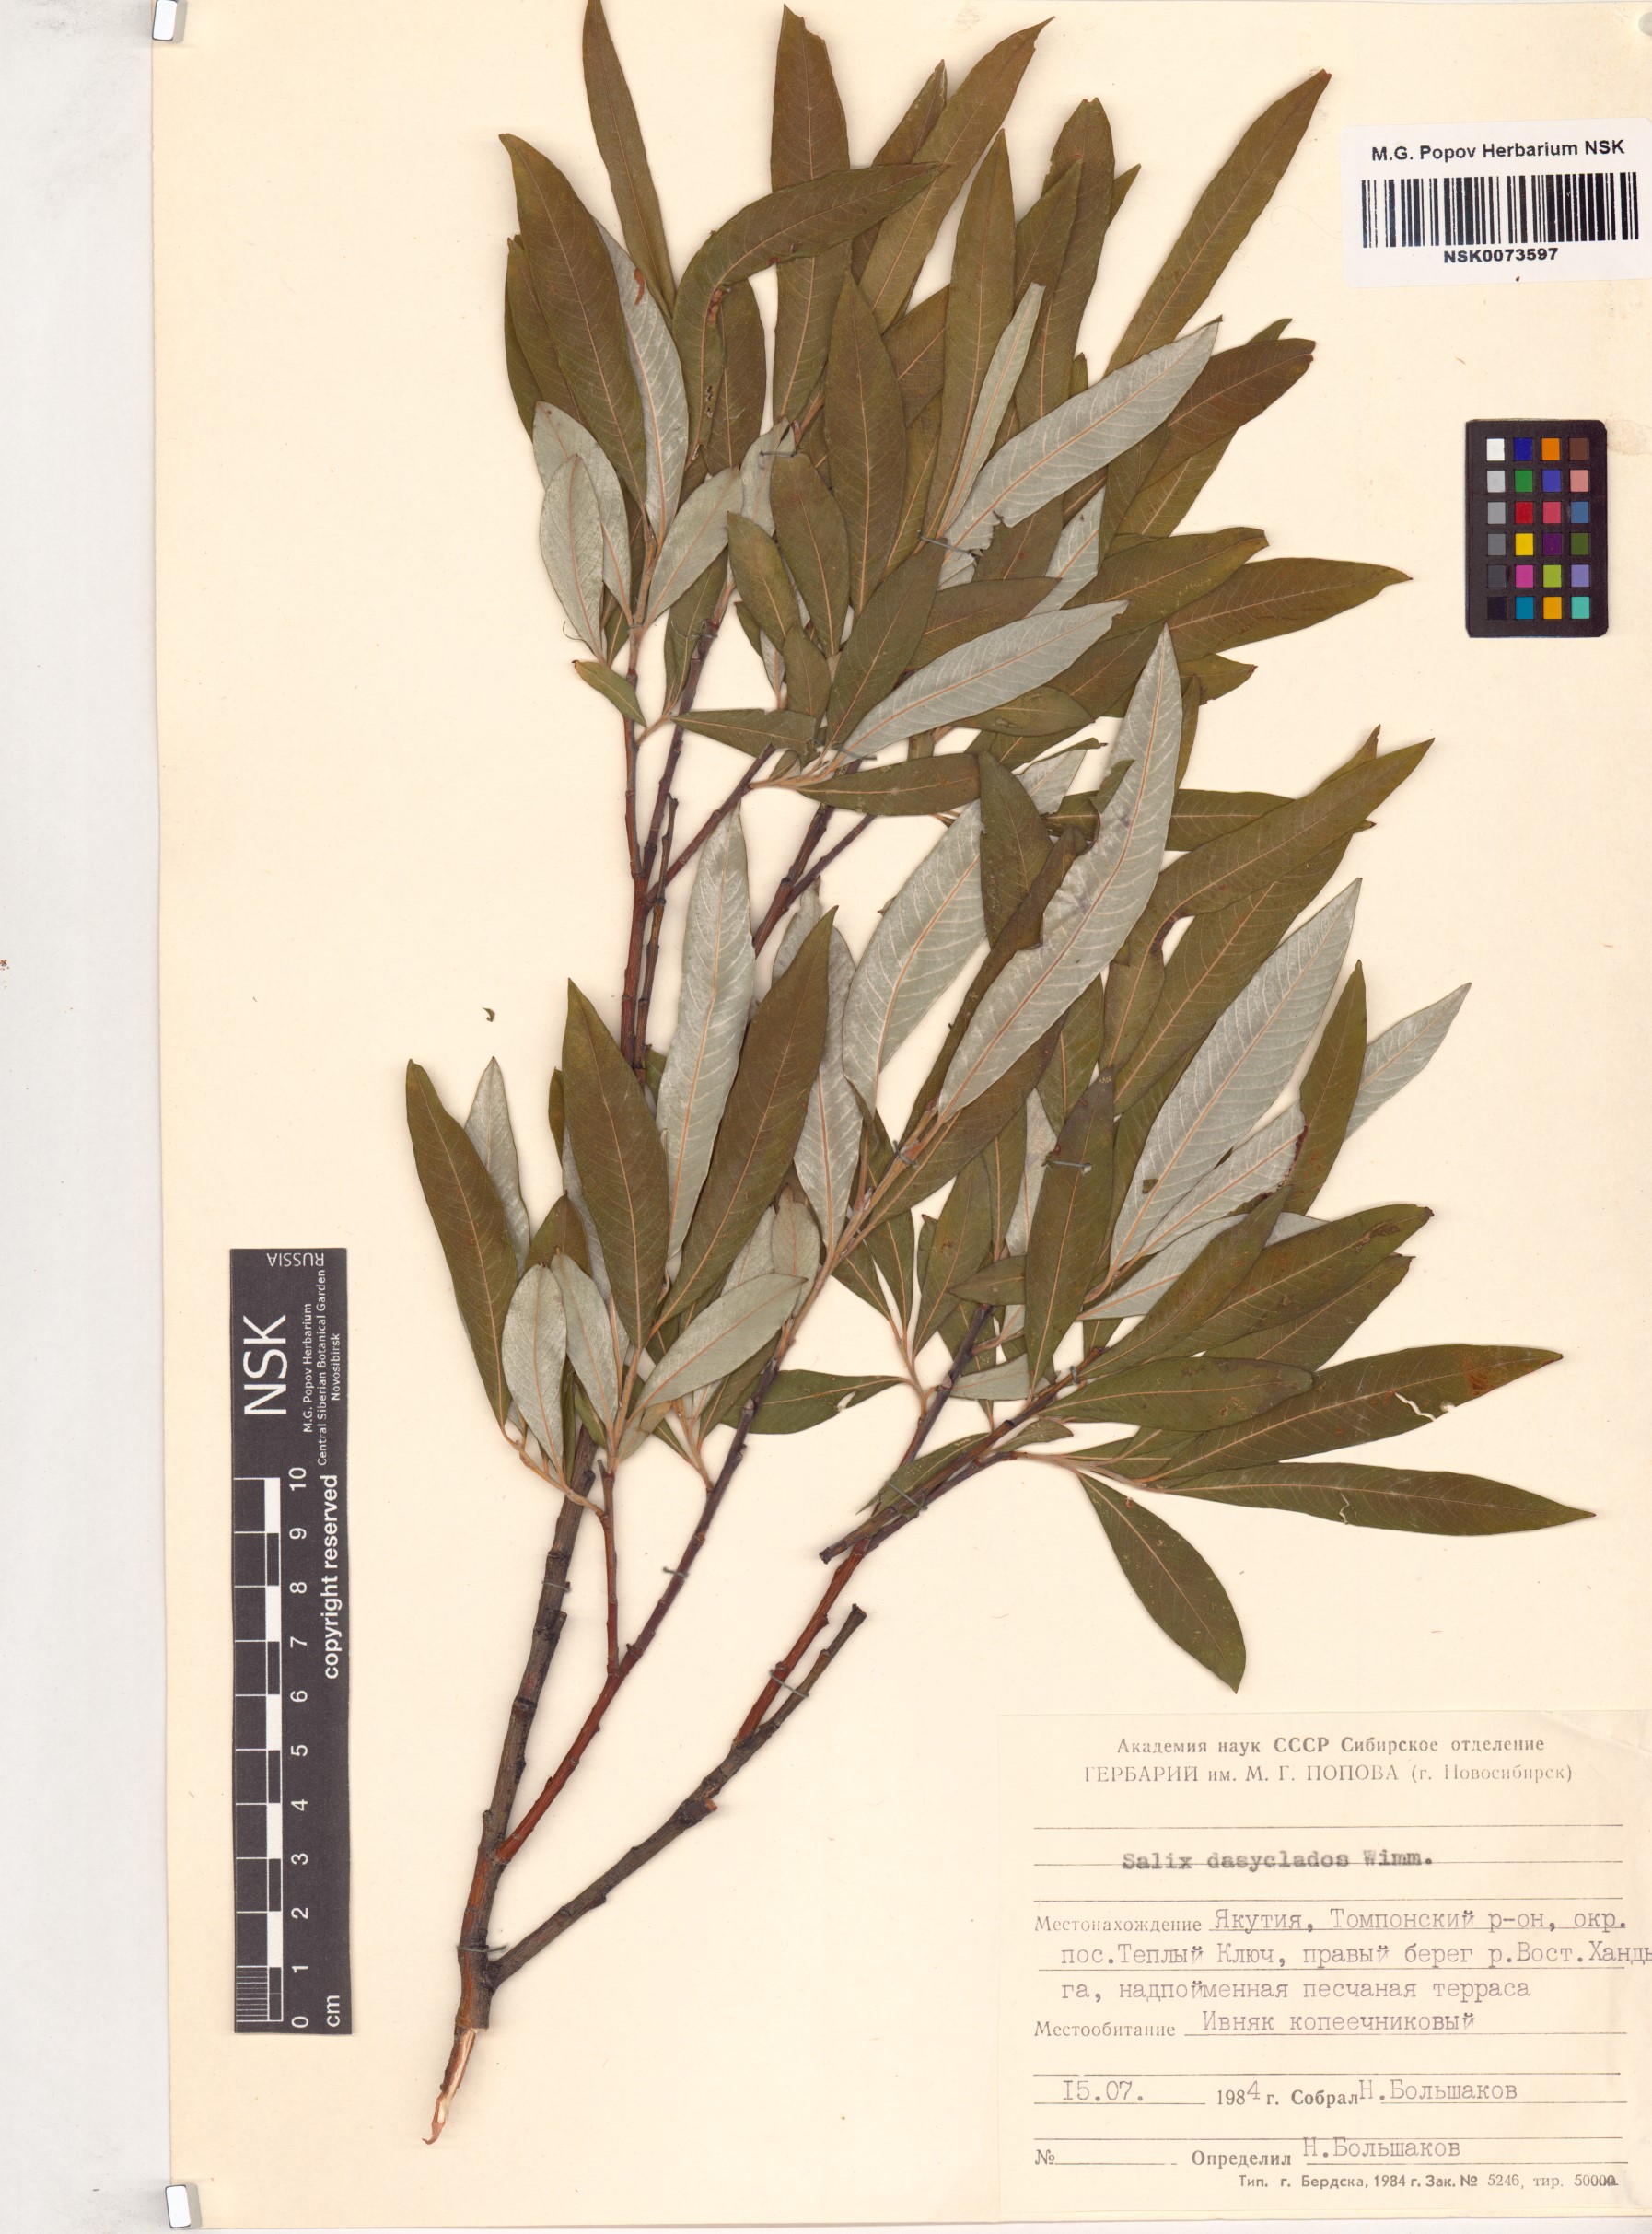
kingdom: Plantae
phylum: Tracheophyta
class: Magnoliopsida
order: Malpighiales
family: Salicaceae
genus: Salix
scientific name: Salix gmelinii
